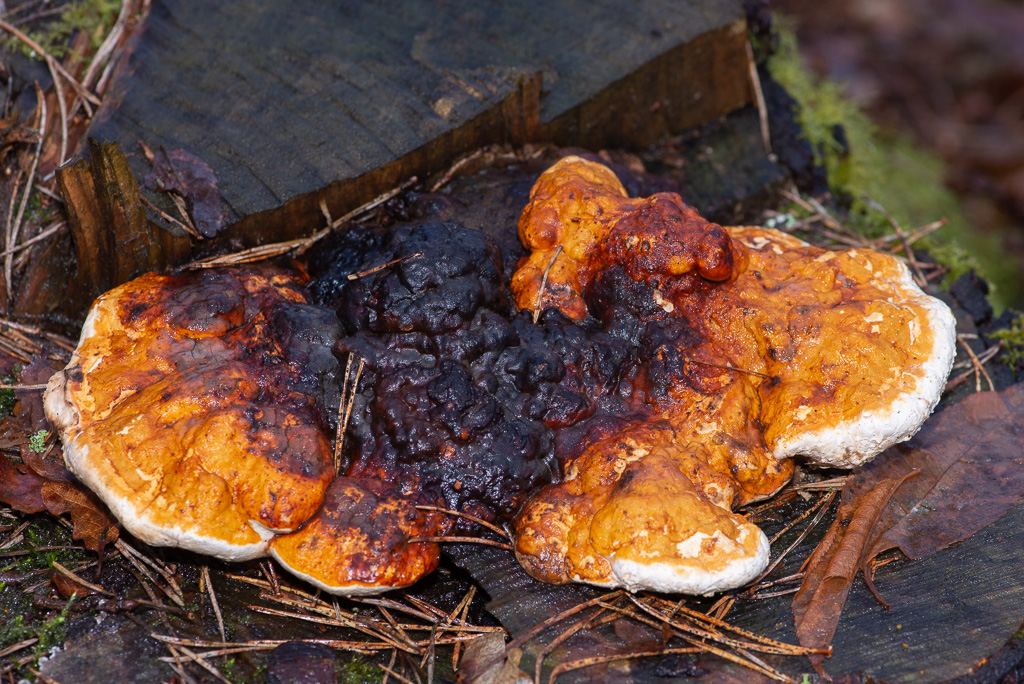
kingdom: Fungi
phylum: Basidiomycota
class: Agaricomycetes
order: Polyporales
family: Fomitopsidaceae
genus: Fomitopsis
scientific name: Fomitopsis pinicola
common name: randbæltet hovporesvamp
